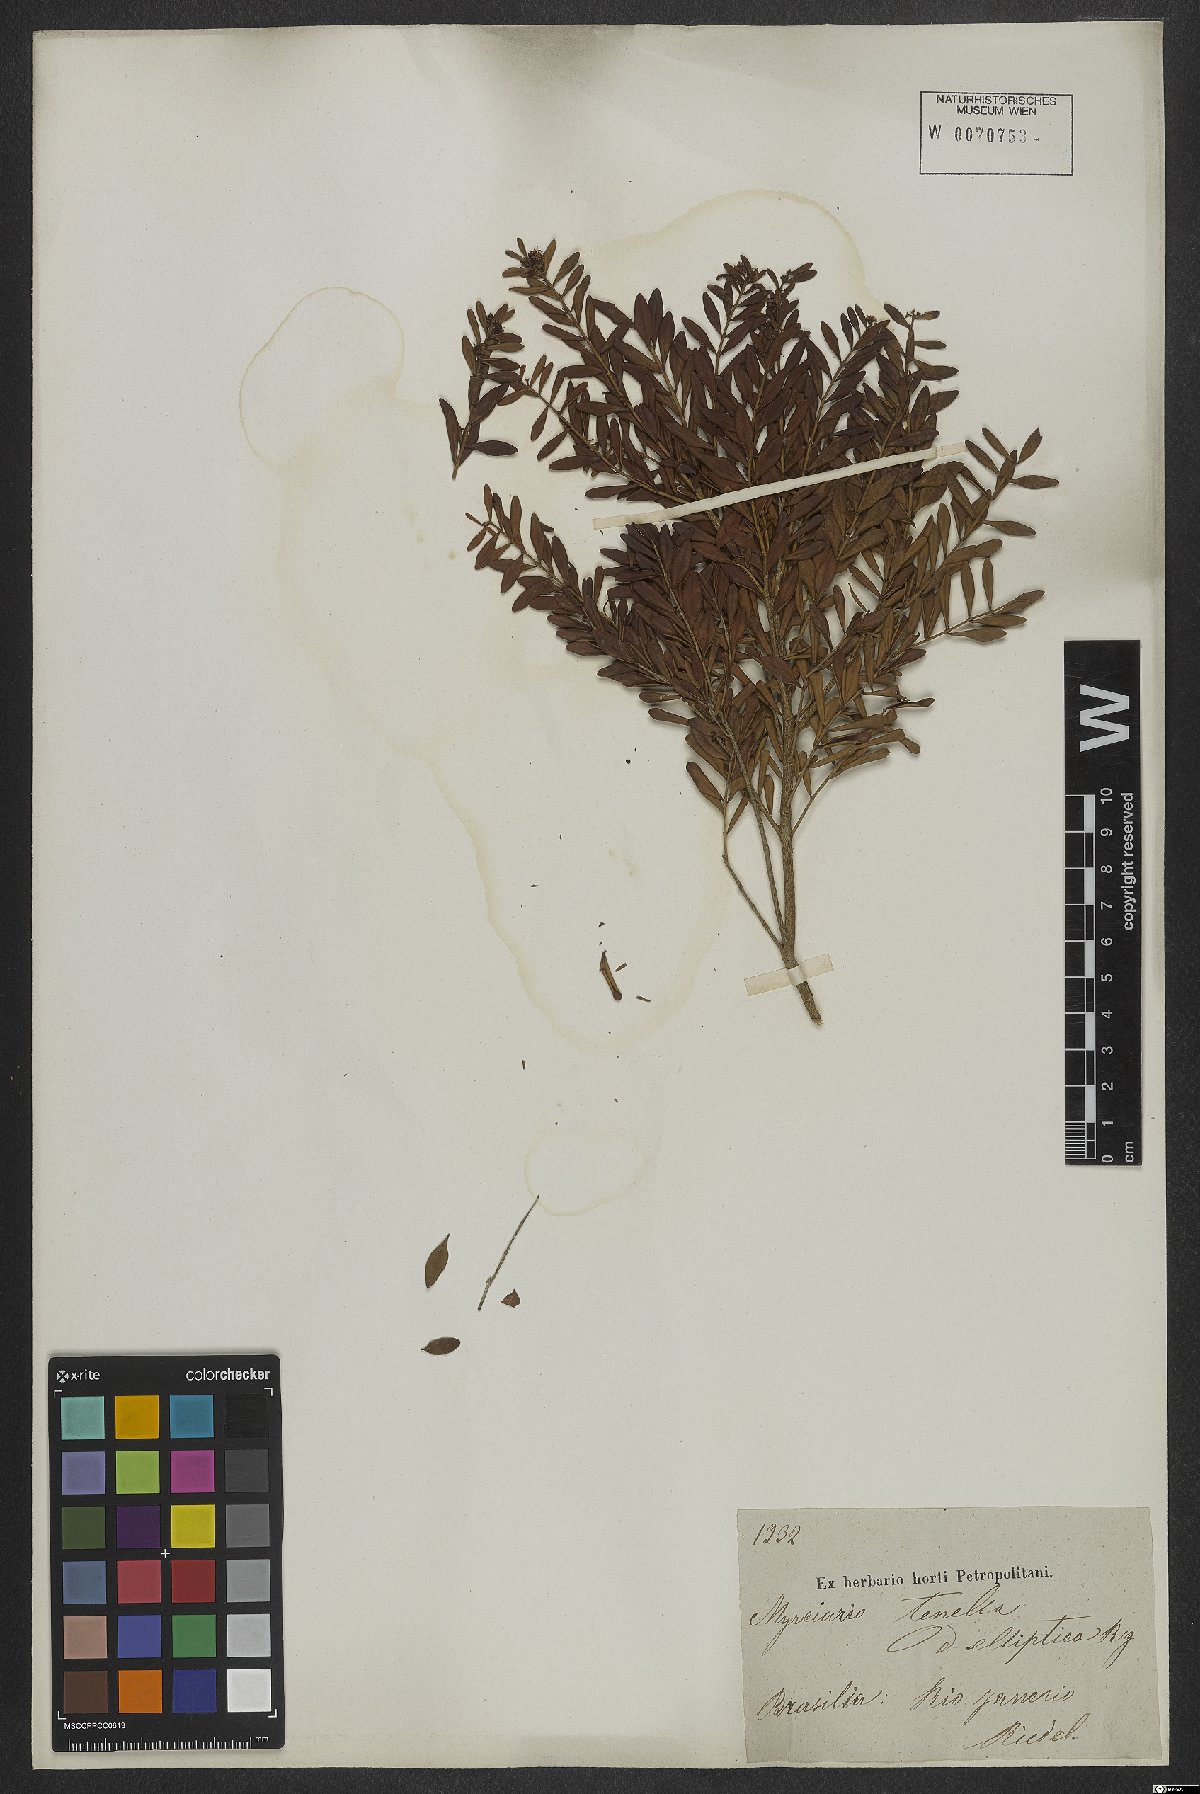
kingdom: Plantae
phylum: Tracheophyta
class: Magnoliopsida
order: Myrtales
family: Myrtaceae
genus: Myrciaria
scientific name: Myrciaria tenella
